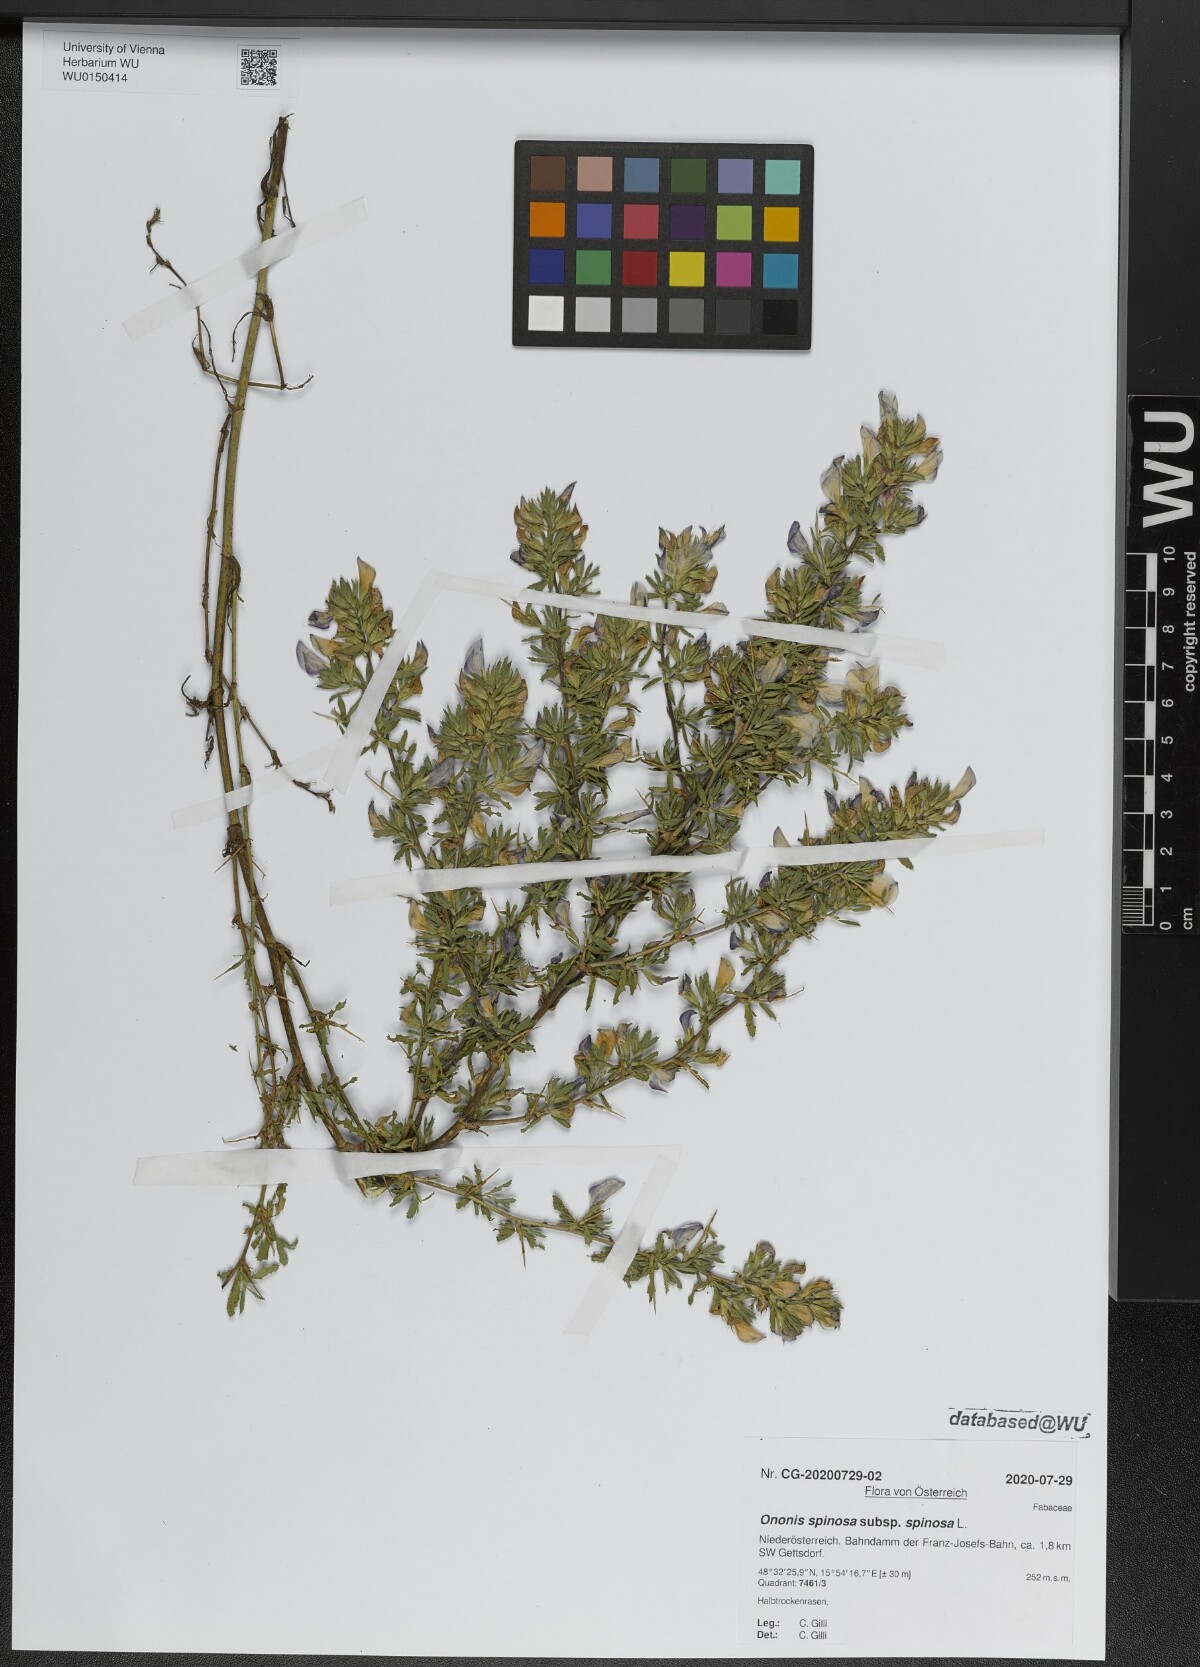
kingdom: Plantae
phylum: Tracheophyta
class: Magnoliopsida
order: Fabales
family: Fabaceae
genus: Ononis
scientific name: Ononis spinosa
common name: Spiny restharrow
